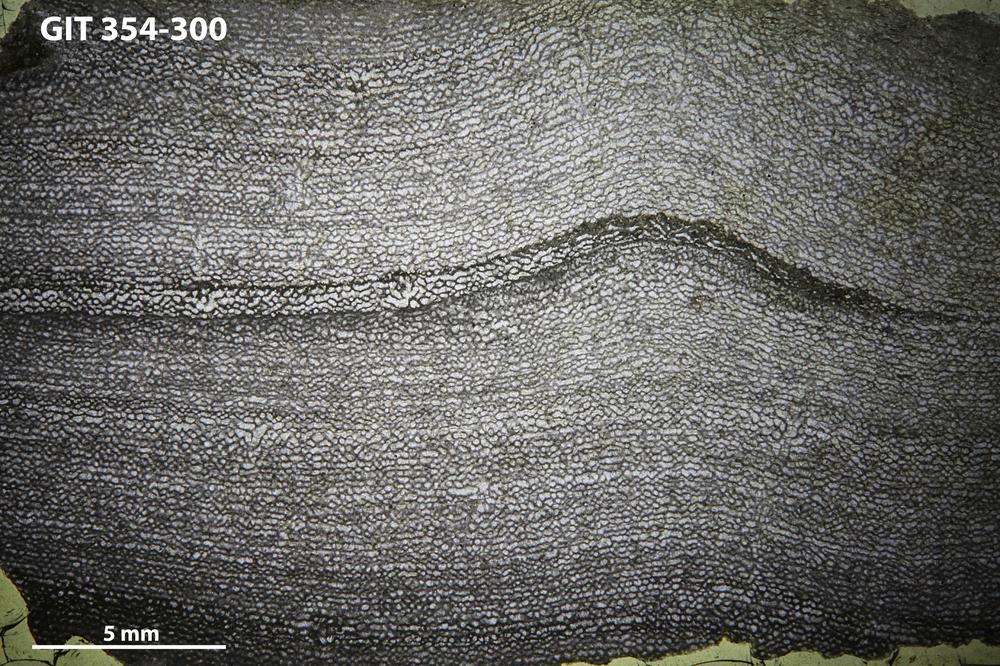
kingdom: Animalia
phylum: Porifera
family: Clathrodictyidae
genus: Clathrodictyon
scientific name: Clathrodictyon boreale
